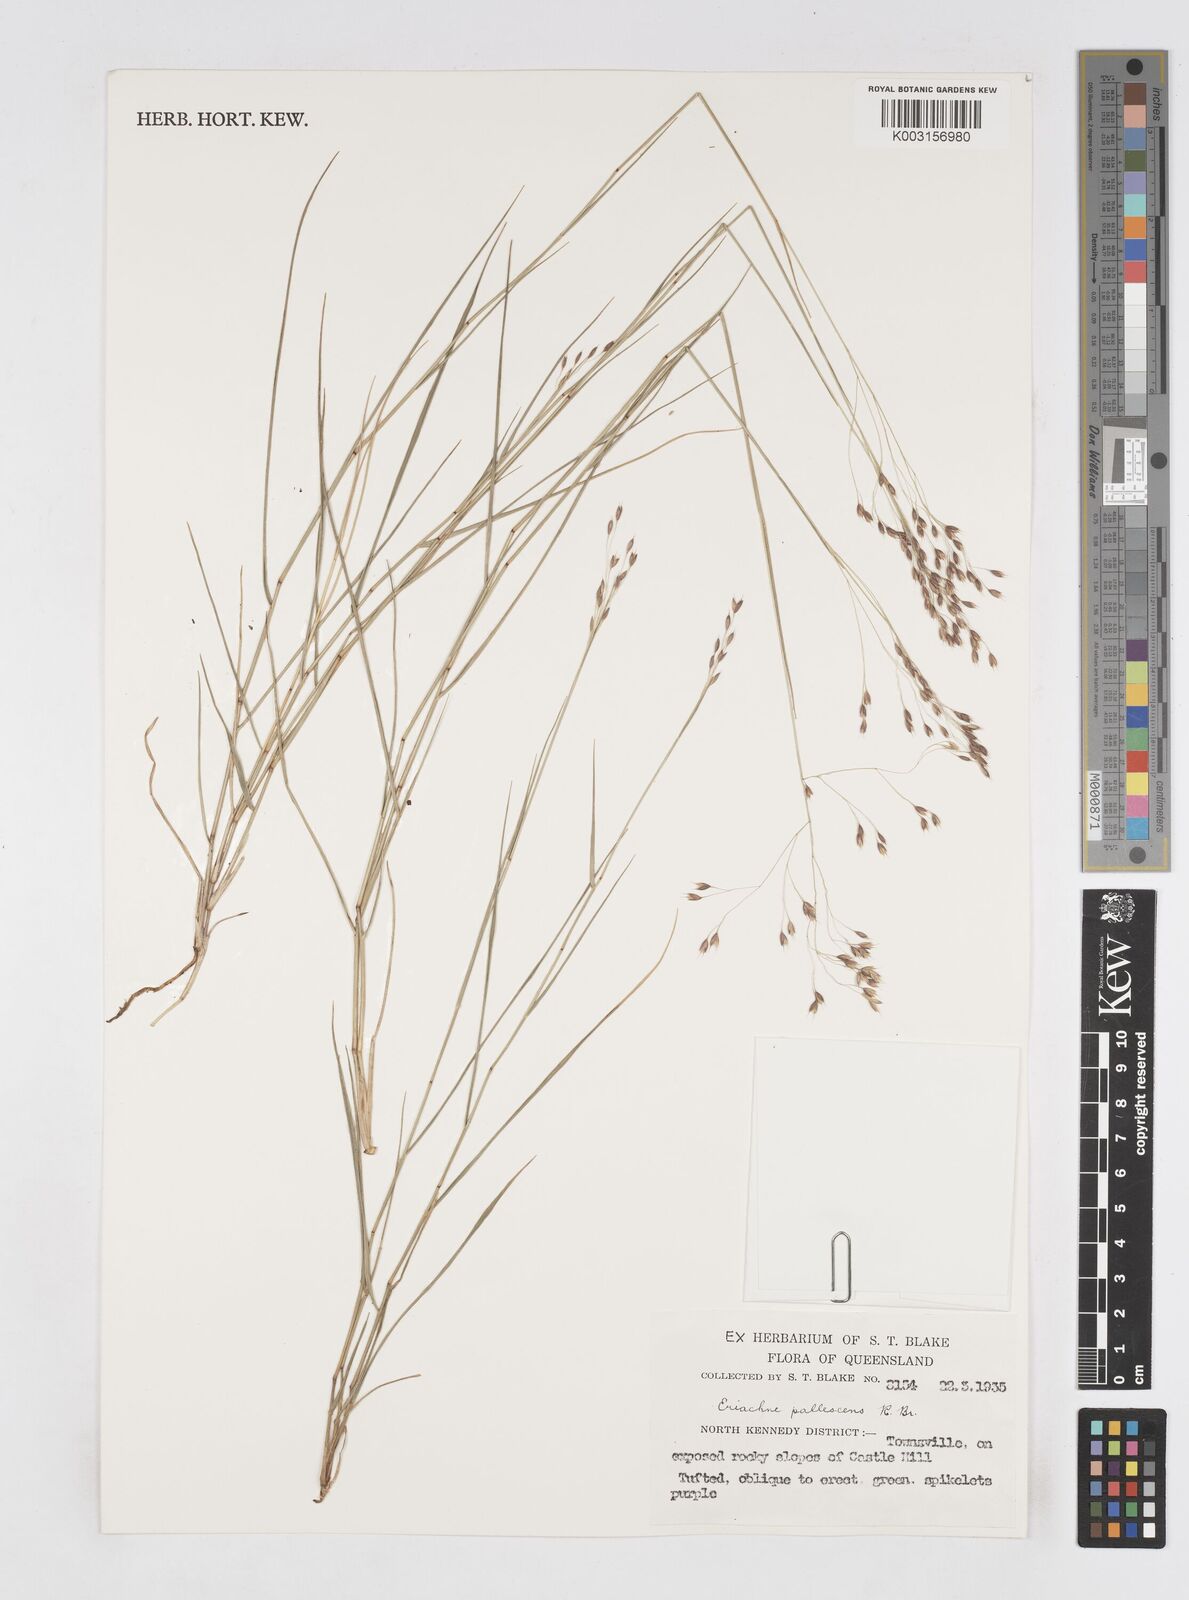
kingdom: Plantae
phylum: Tracheophyta
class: Liliopsida
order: Poales
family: Poaceae
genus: Eriachne
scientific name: Eriachne pallescens
